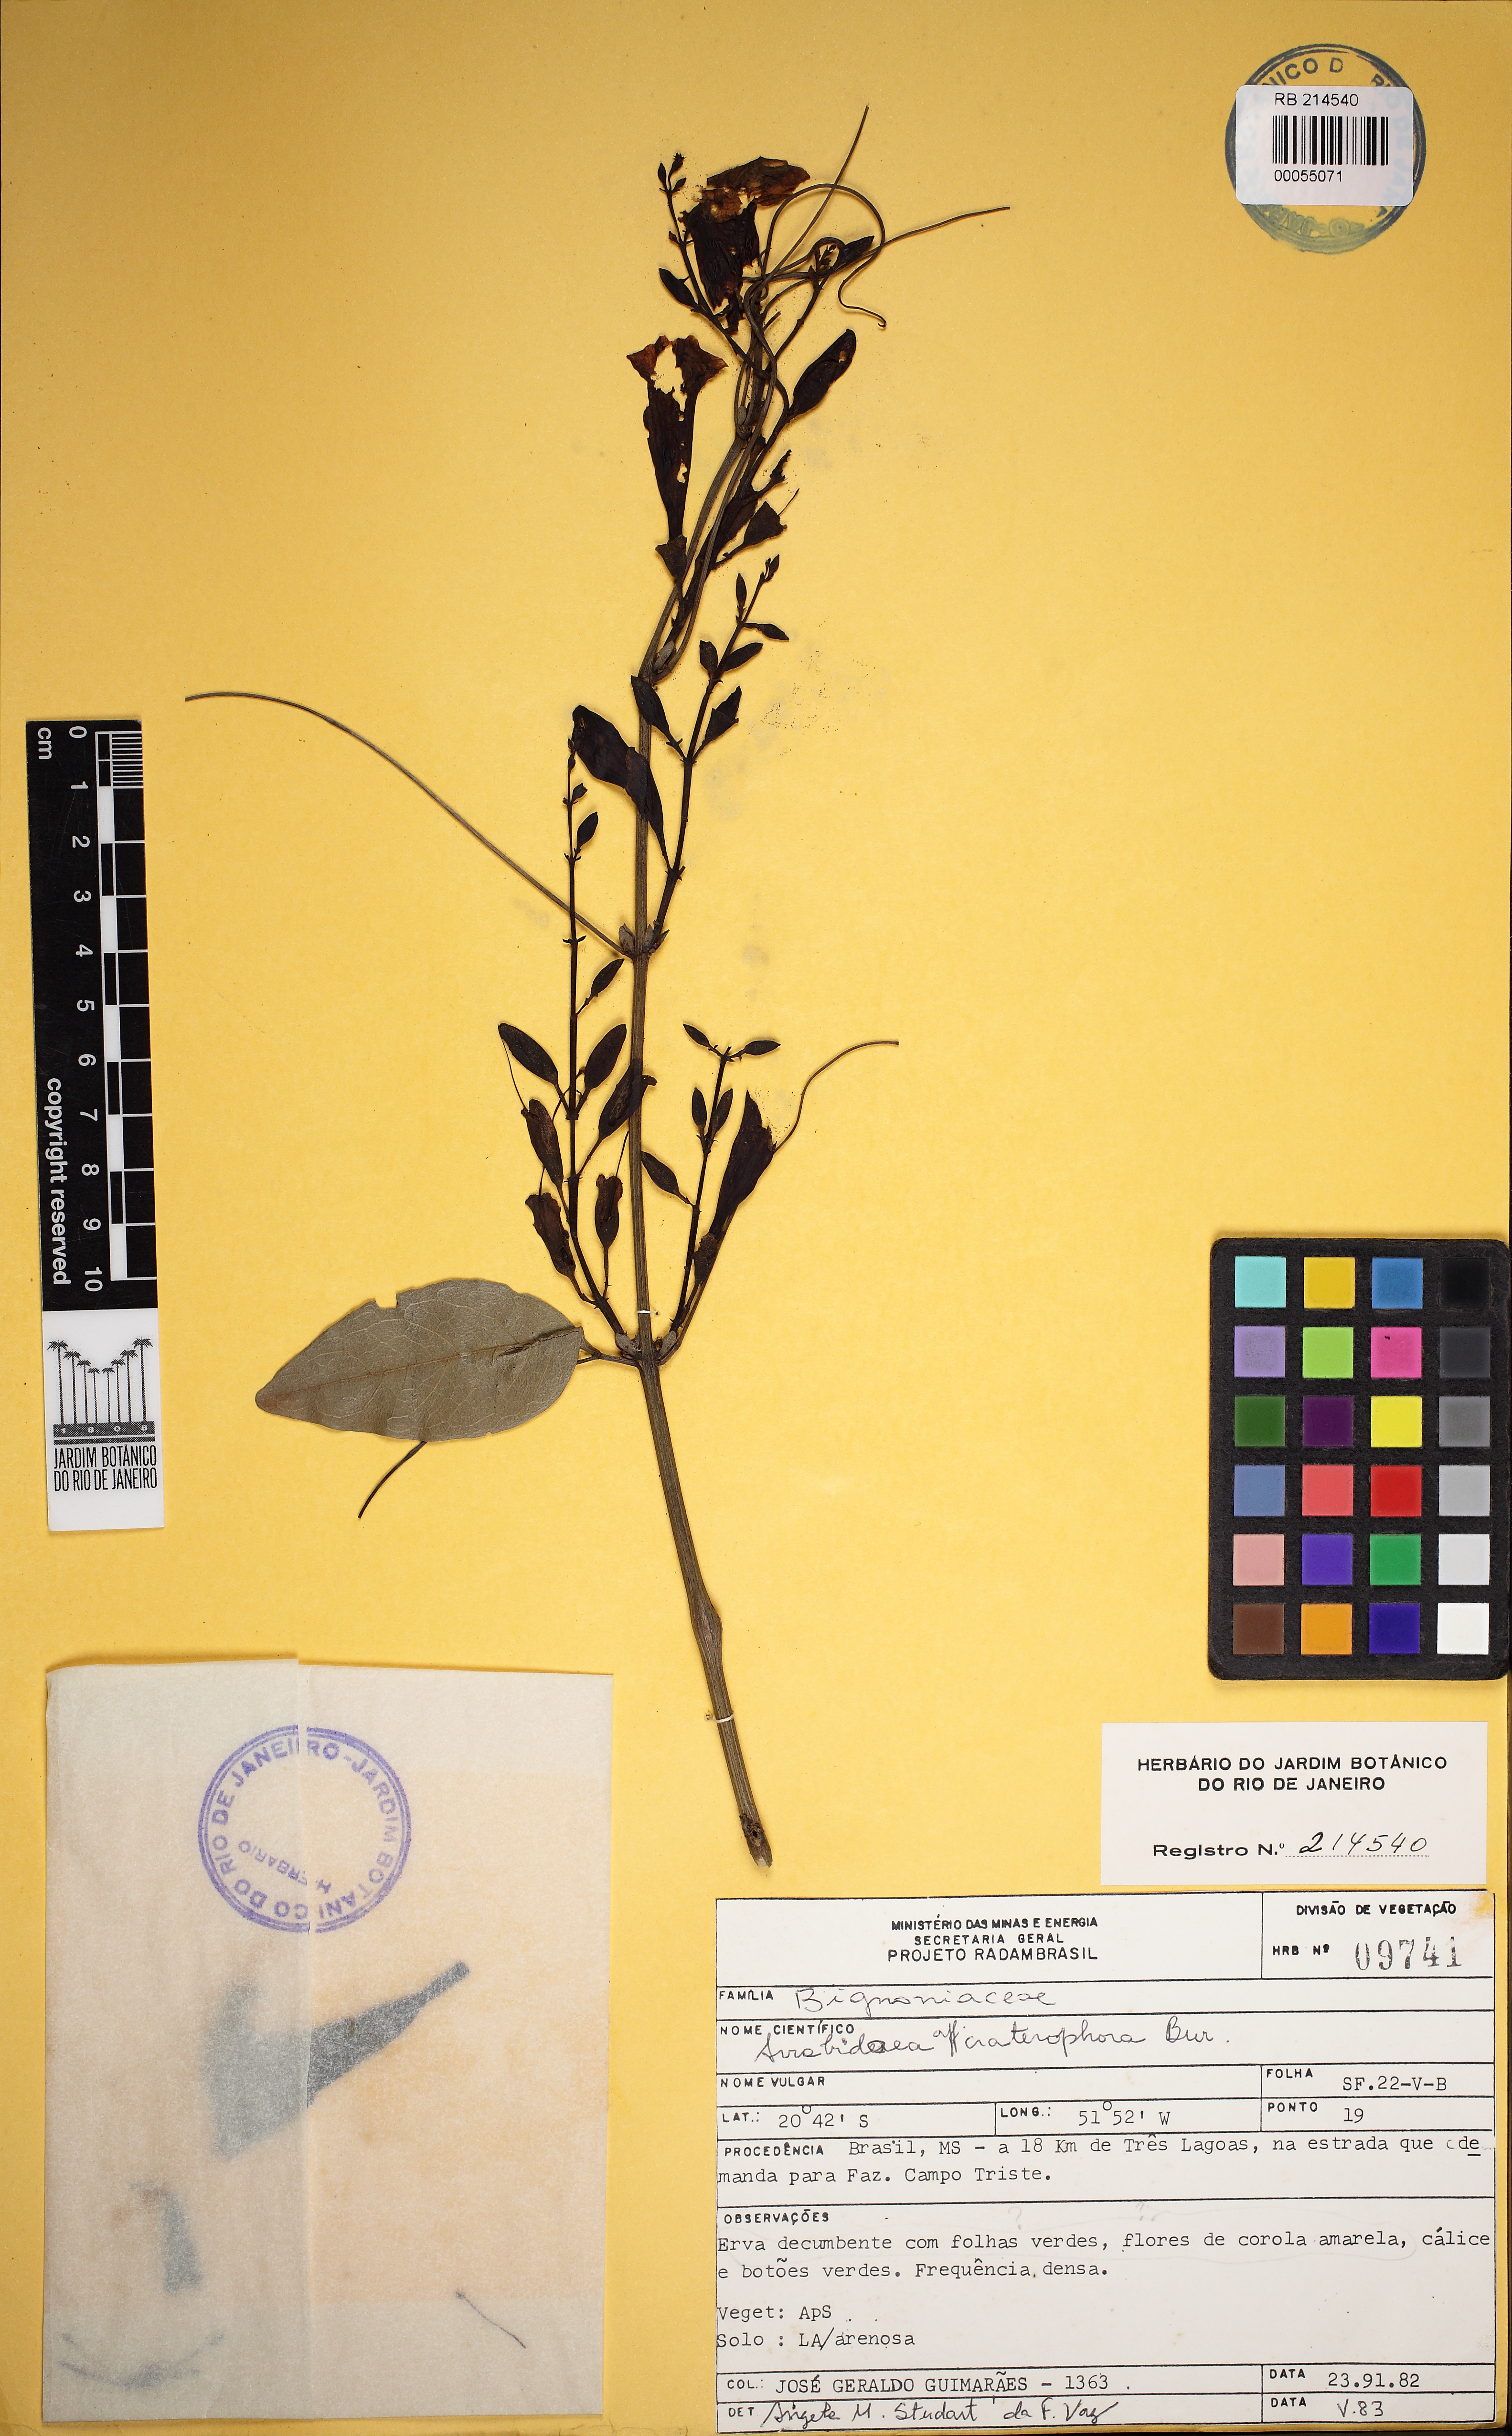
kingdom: Plantae
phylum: Tracheophyta
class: Magnoliopsida
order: Lamiales
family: Bignoniaceae
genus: Adenocalymma
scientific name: Adenocalymma flaviflorum
